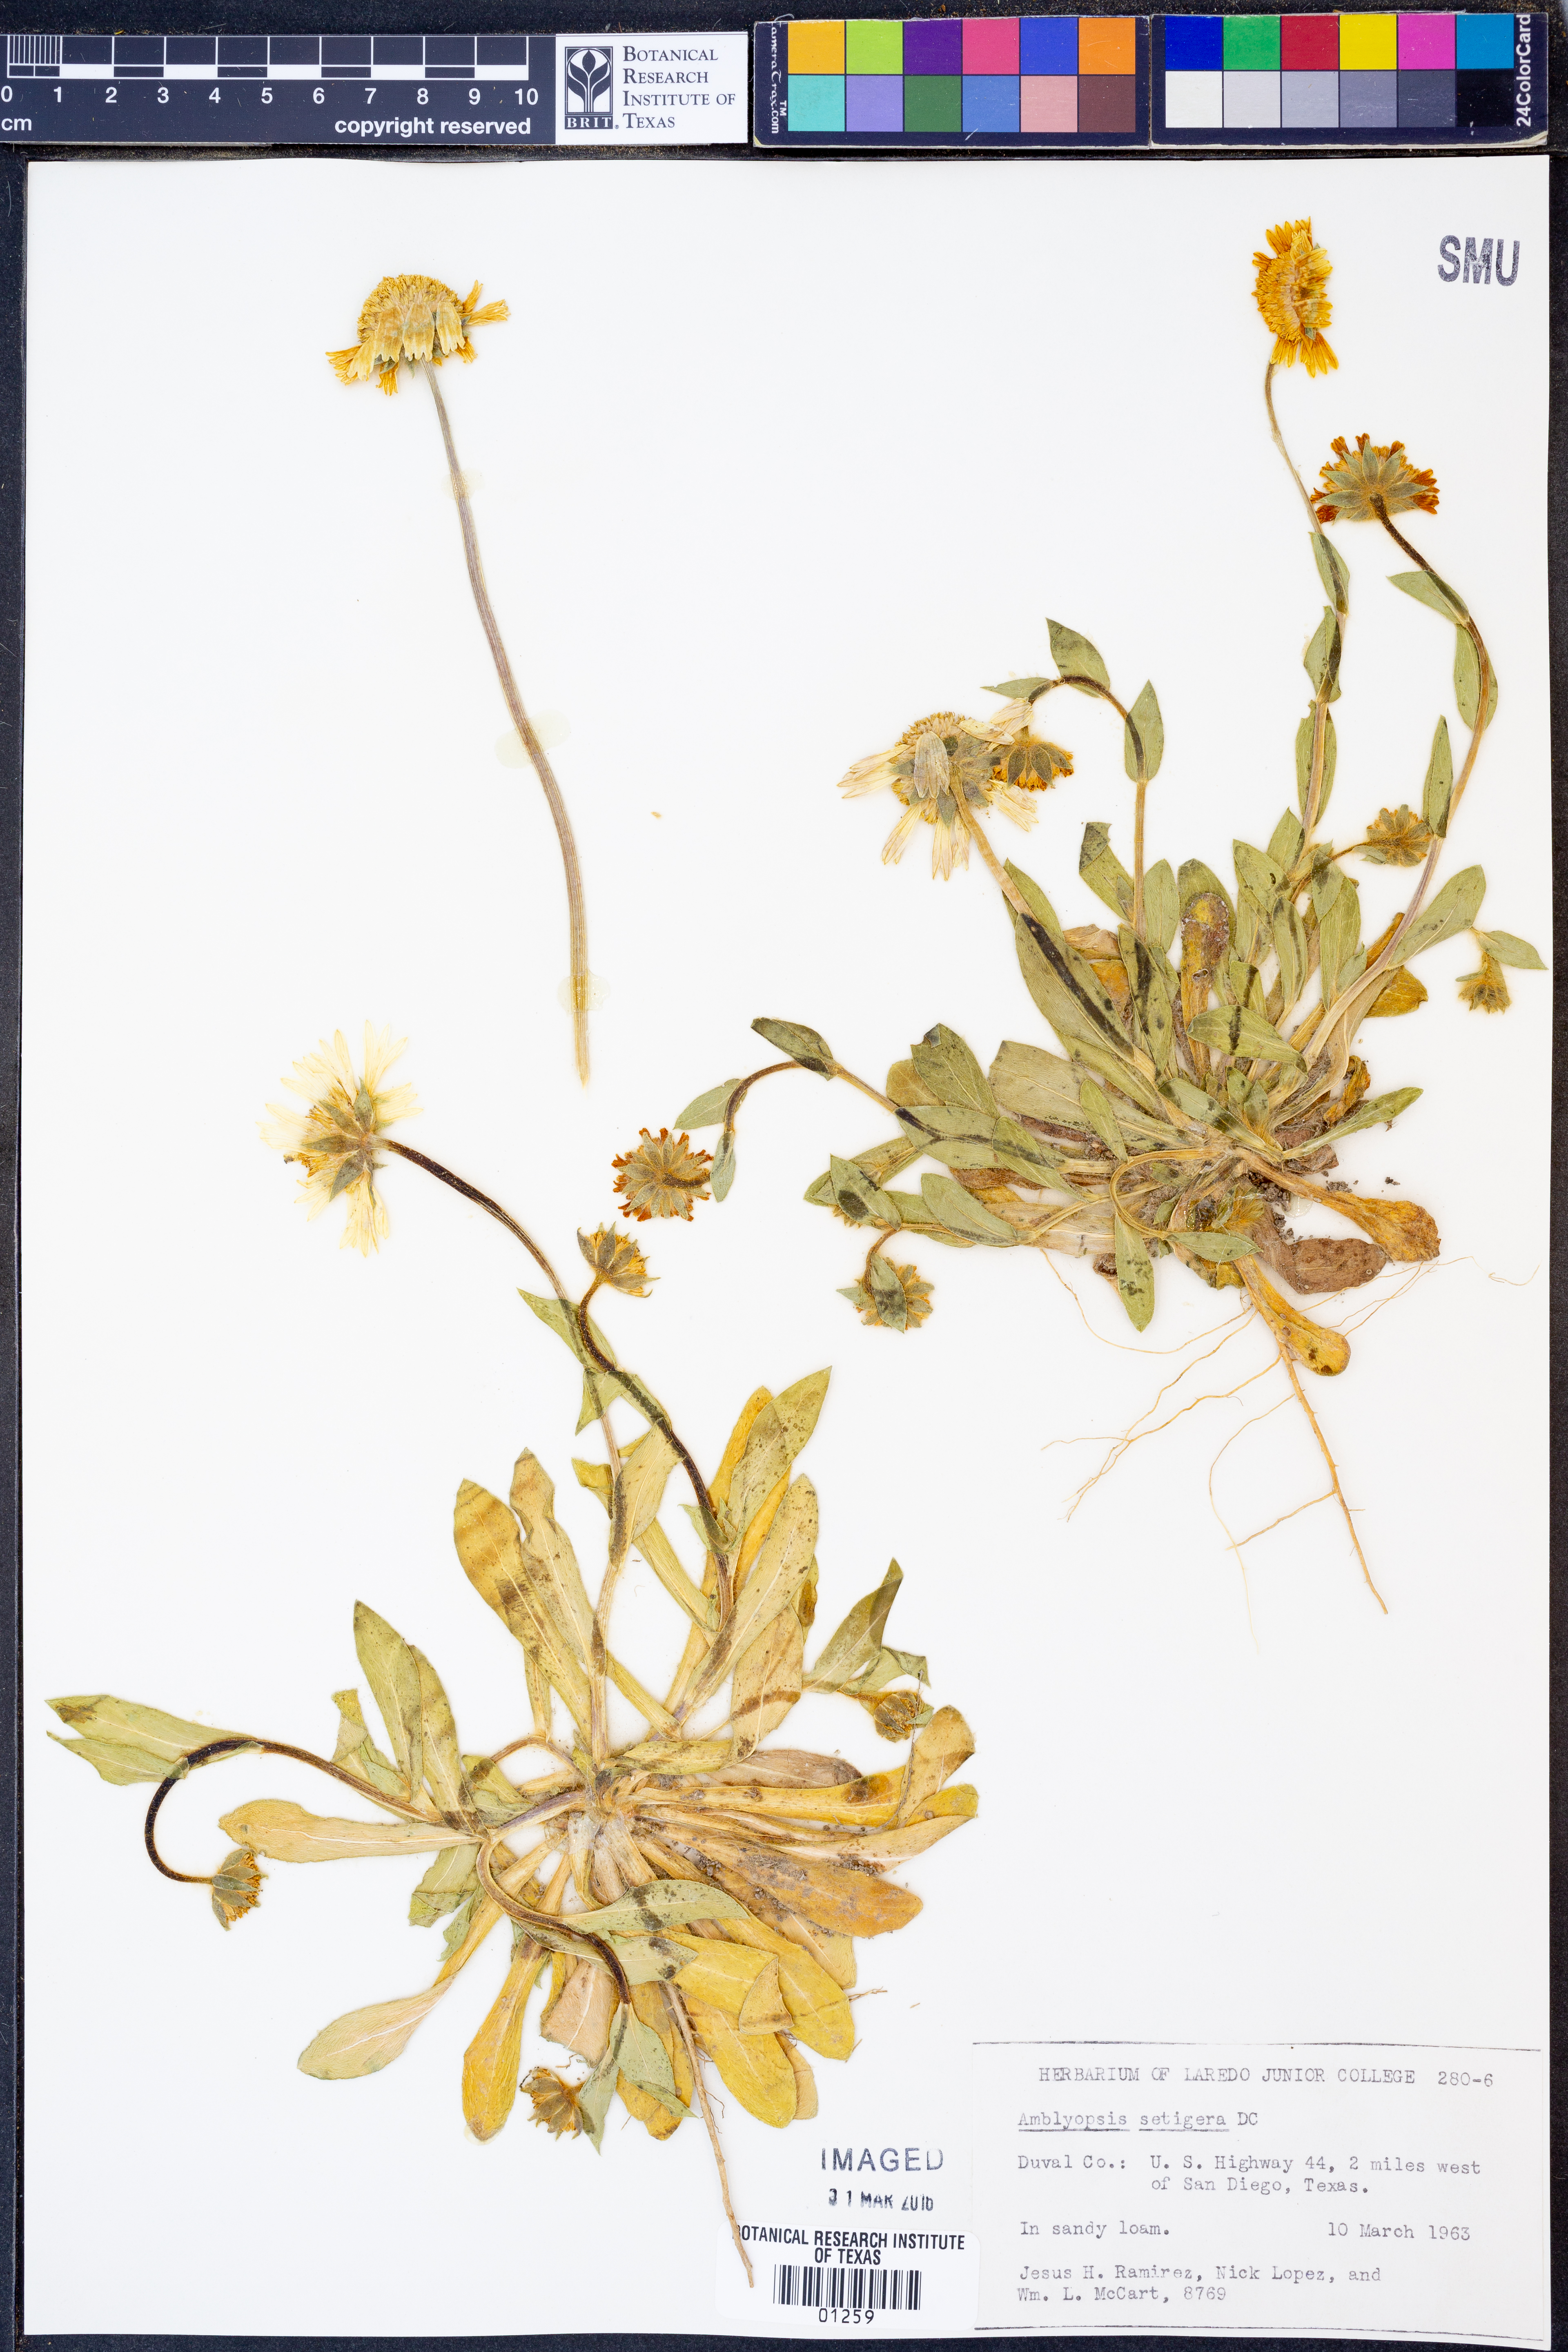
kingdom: Plantae
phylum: Tracheophyta
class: Magnoliopsida
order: Asterales
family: Asteraceae
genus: Amblyolepis
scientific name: Amblyolepis setigera
